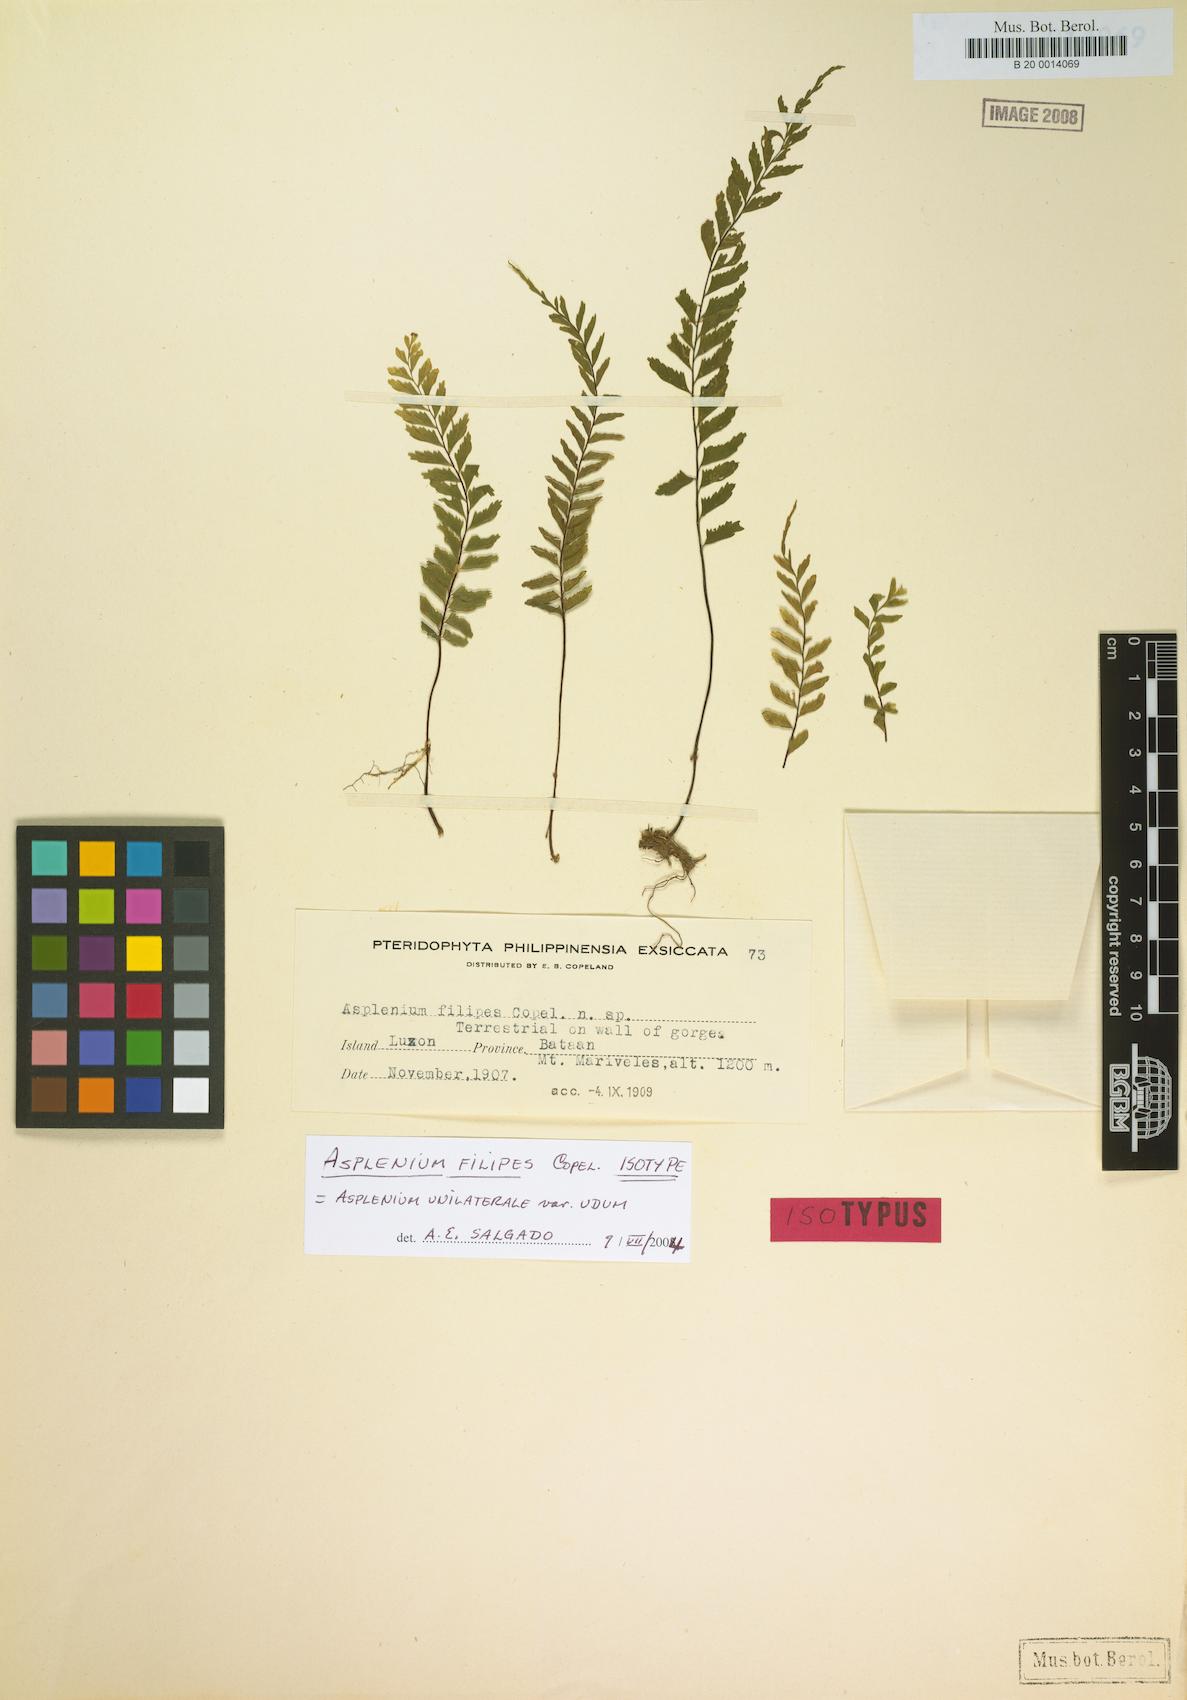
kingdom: Plantae
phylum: Tracheophyta
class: Polypodiopsida
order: Polypodiales
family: Aspleniaceae
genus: Hymenasplenium
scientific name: Hymenasplenium filipes
